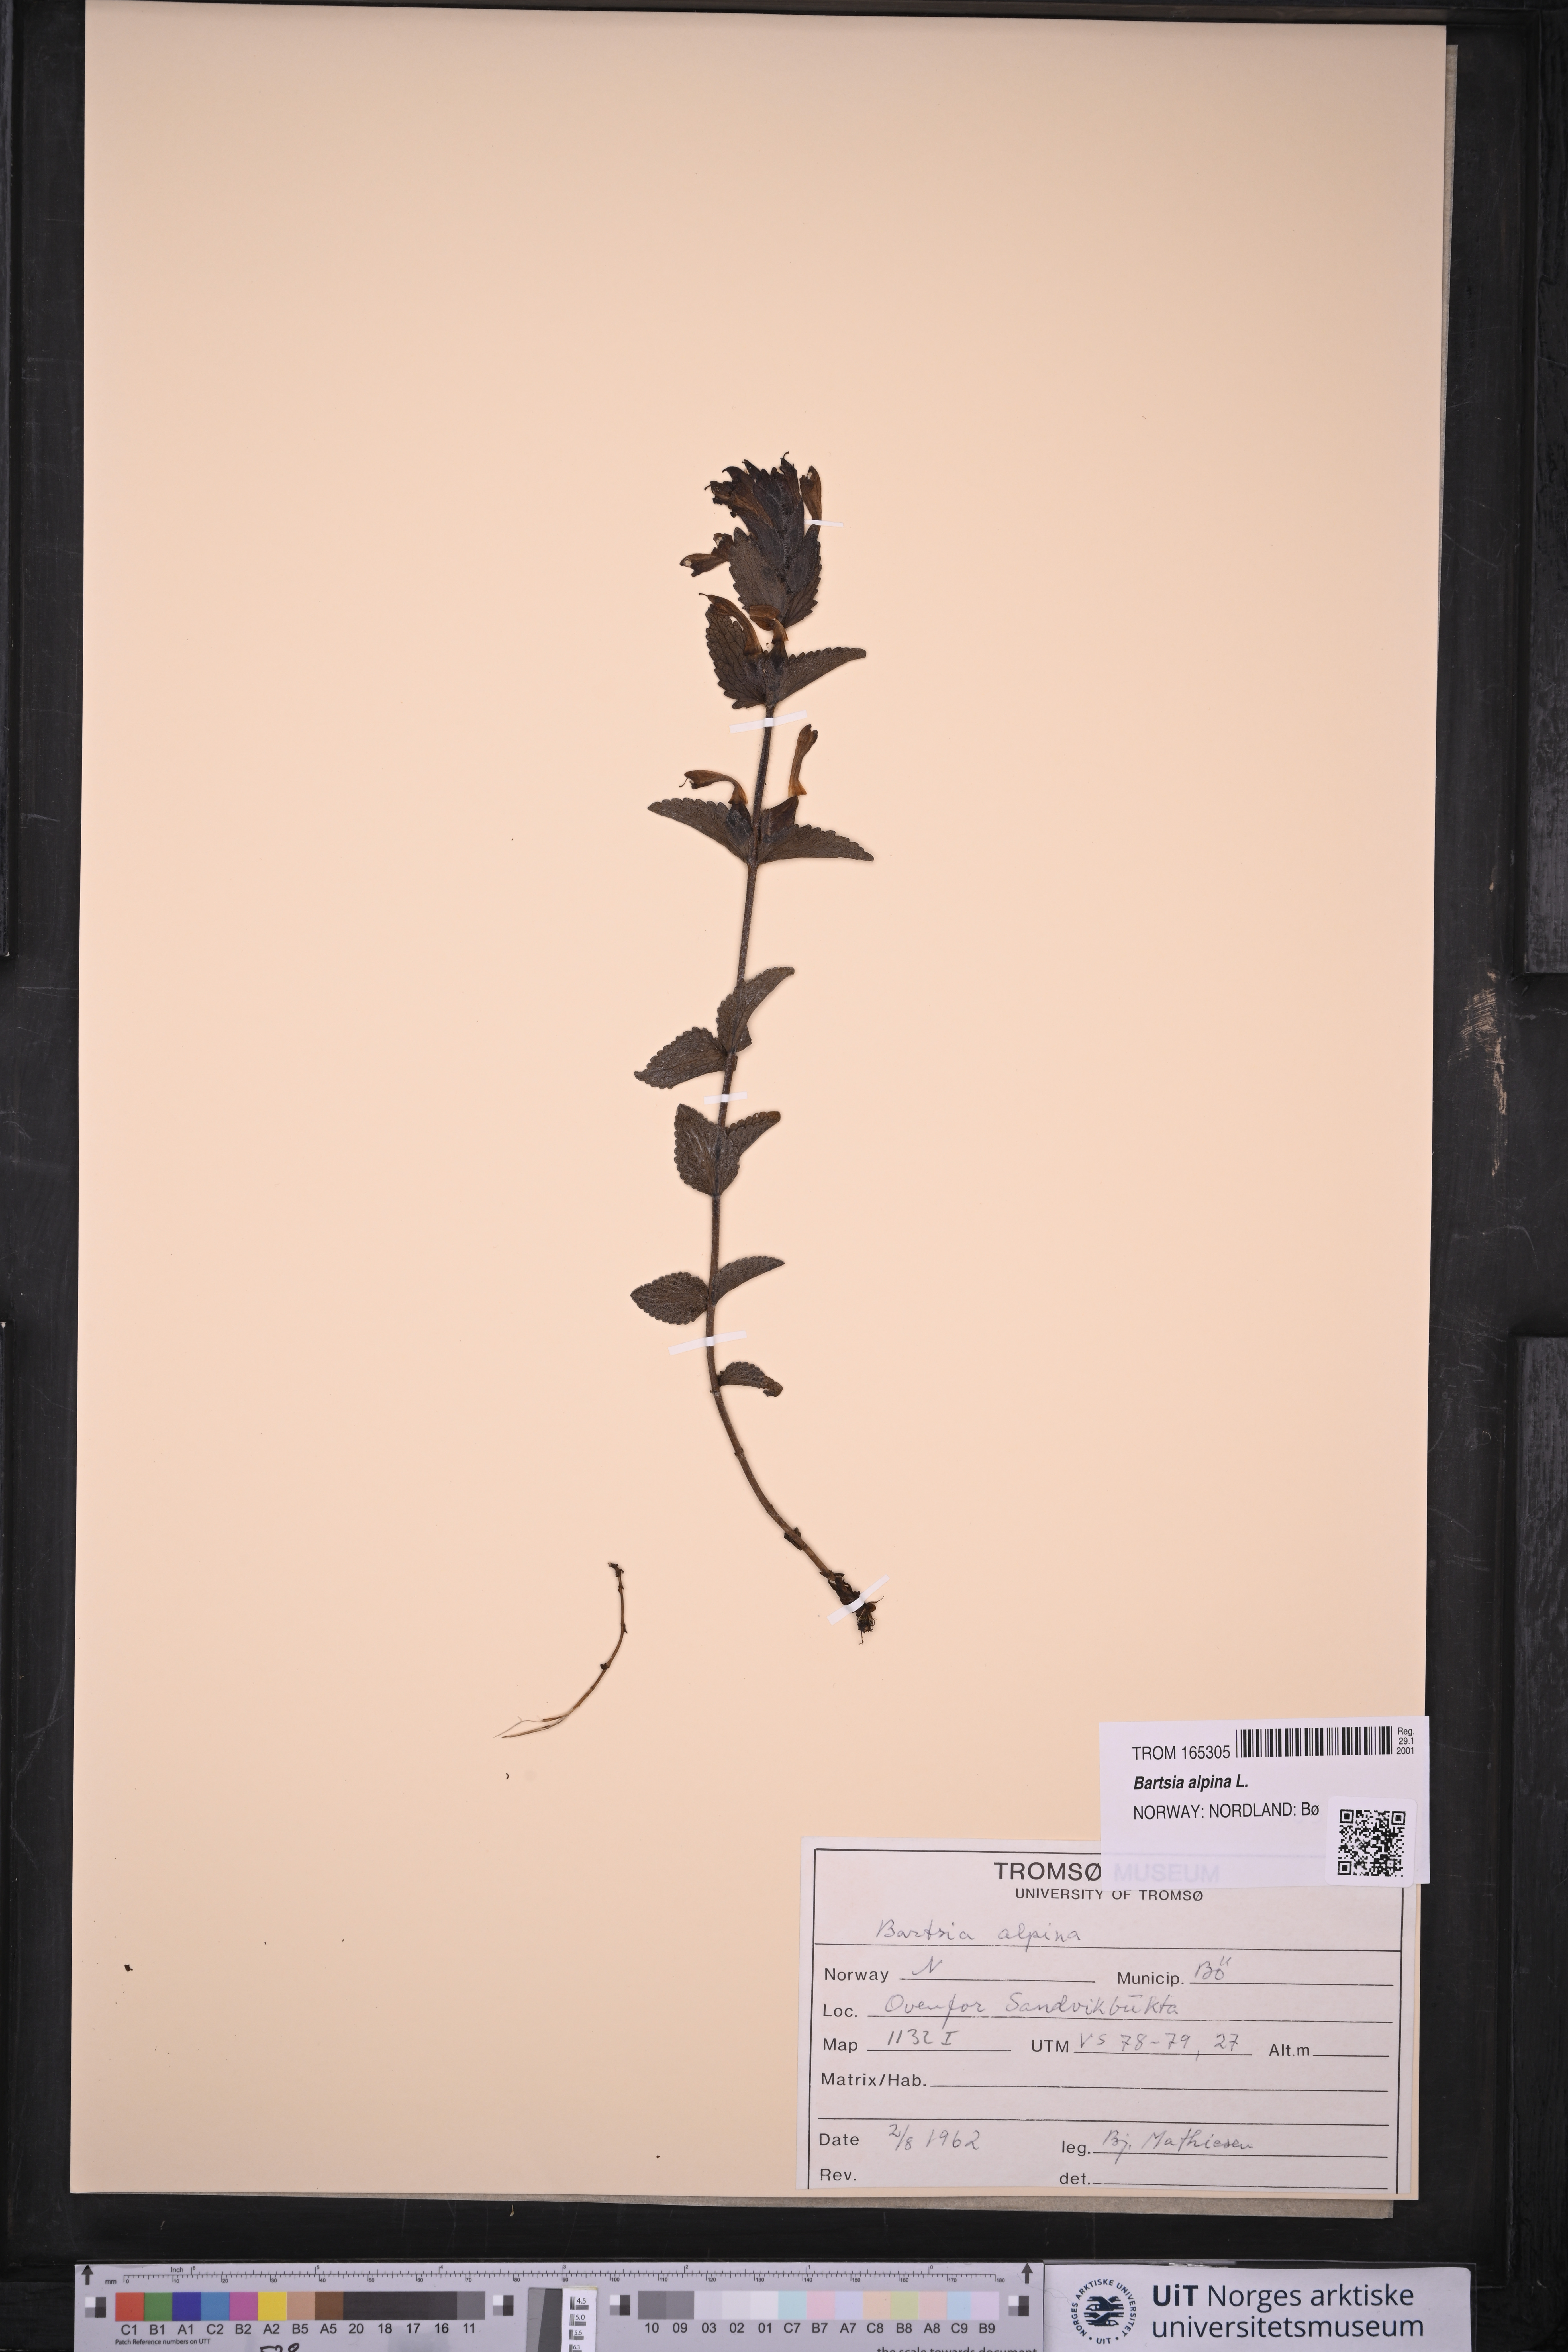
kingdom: Plantae
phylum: Tracheophyta
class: Magnoliopsida
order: Lamiales
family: Orobanchaceae
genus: Bartsia
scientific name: Bartsia alpina
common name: Alpine bartsia
